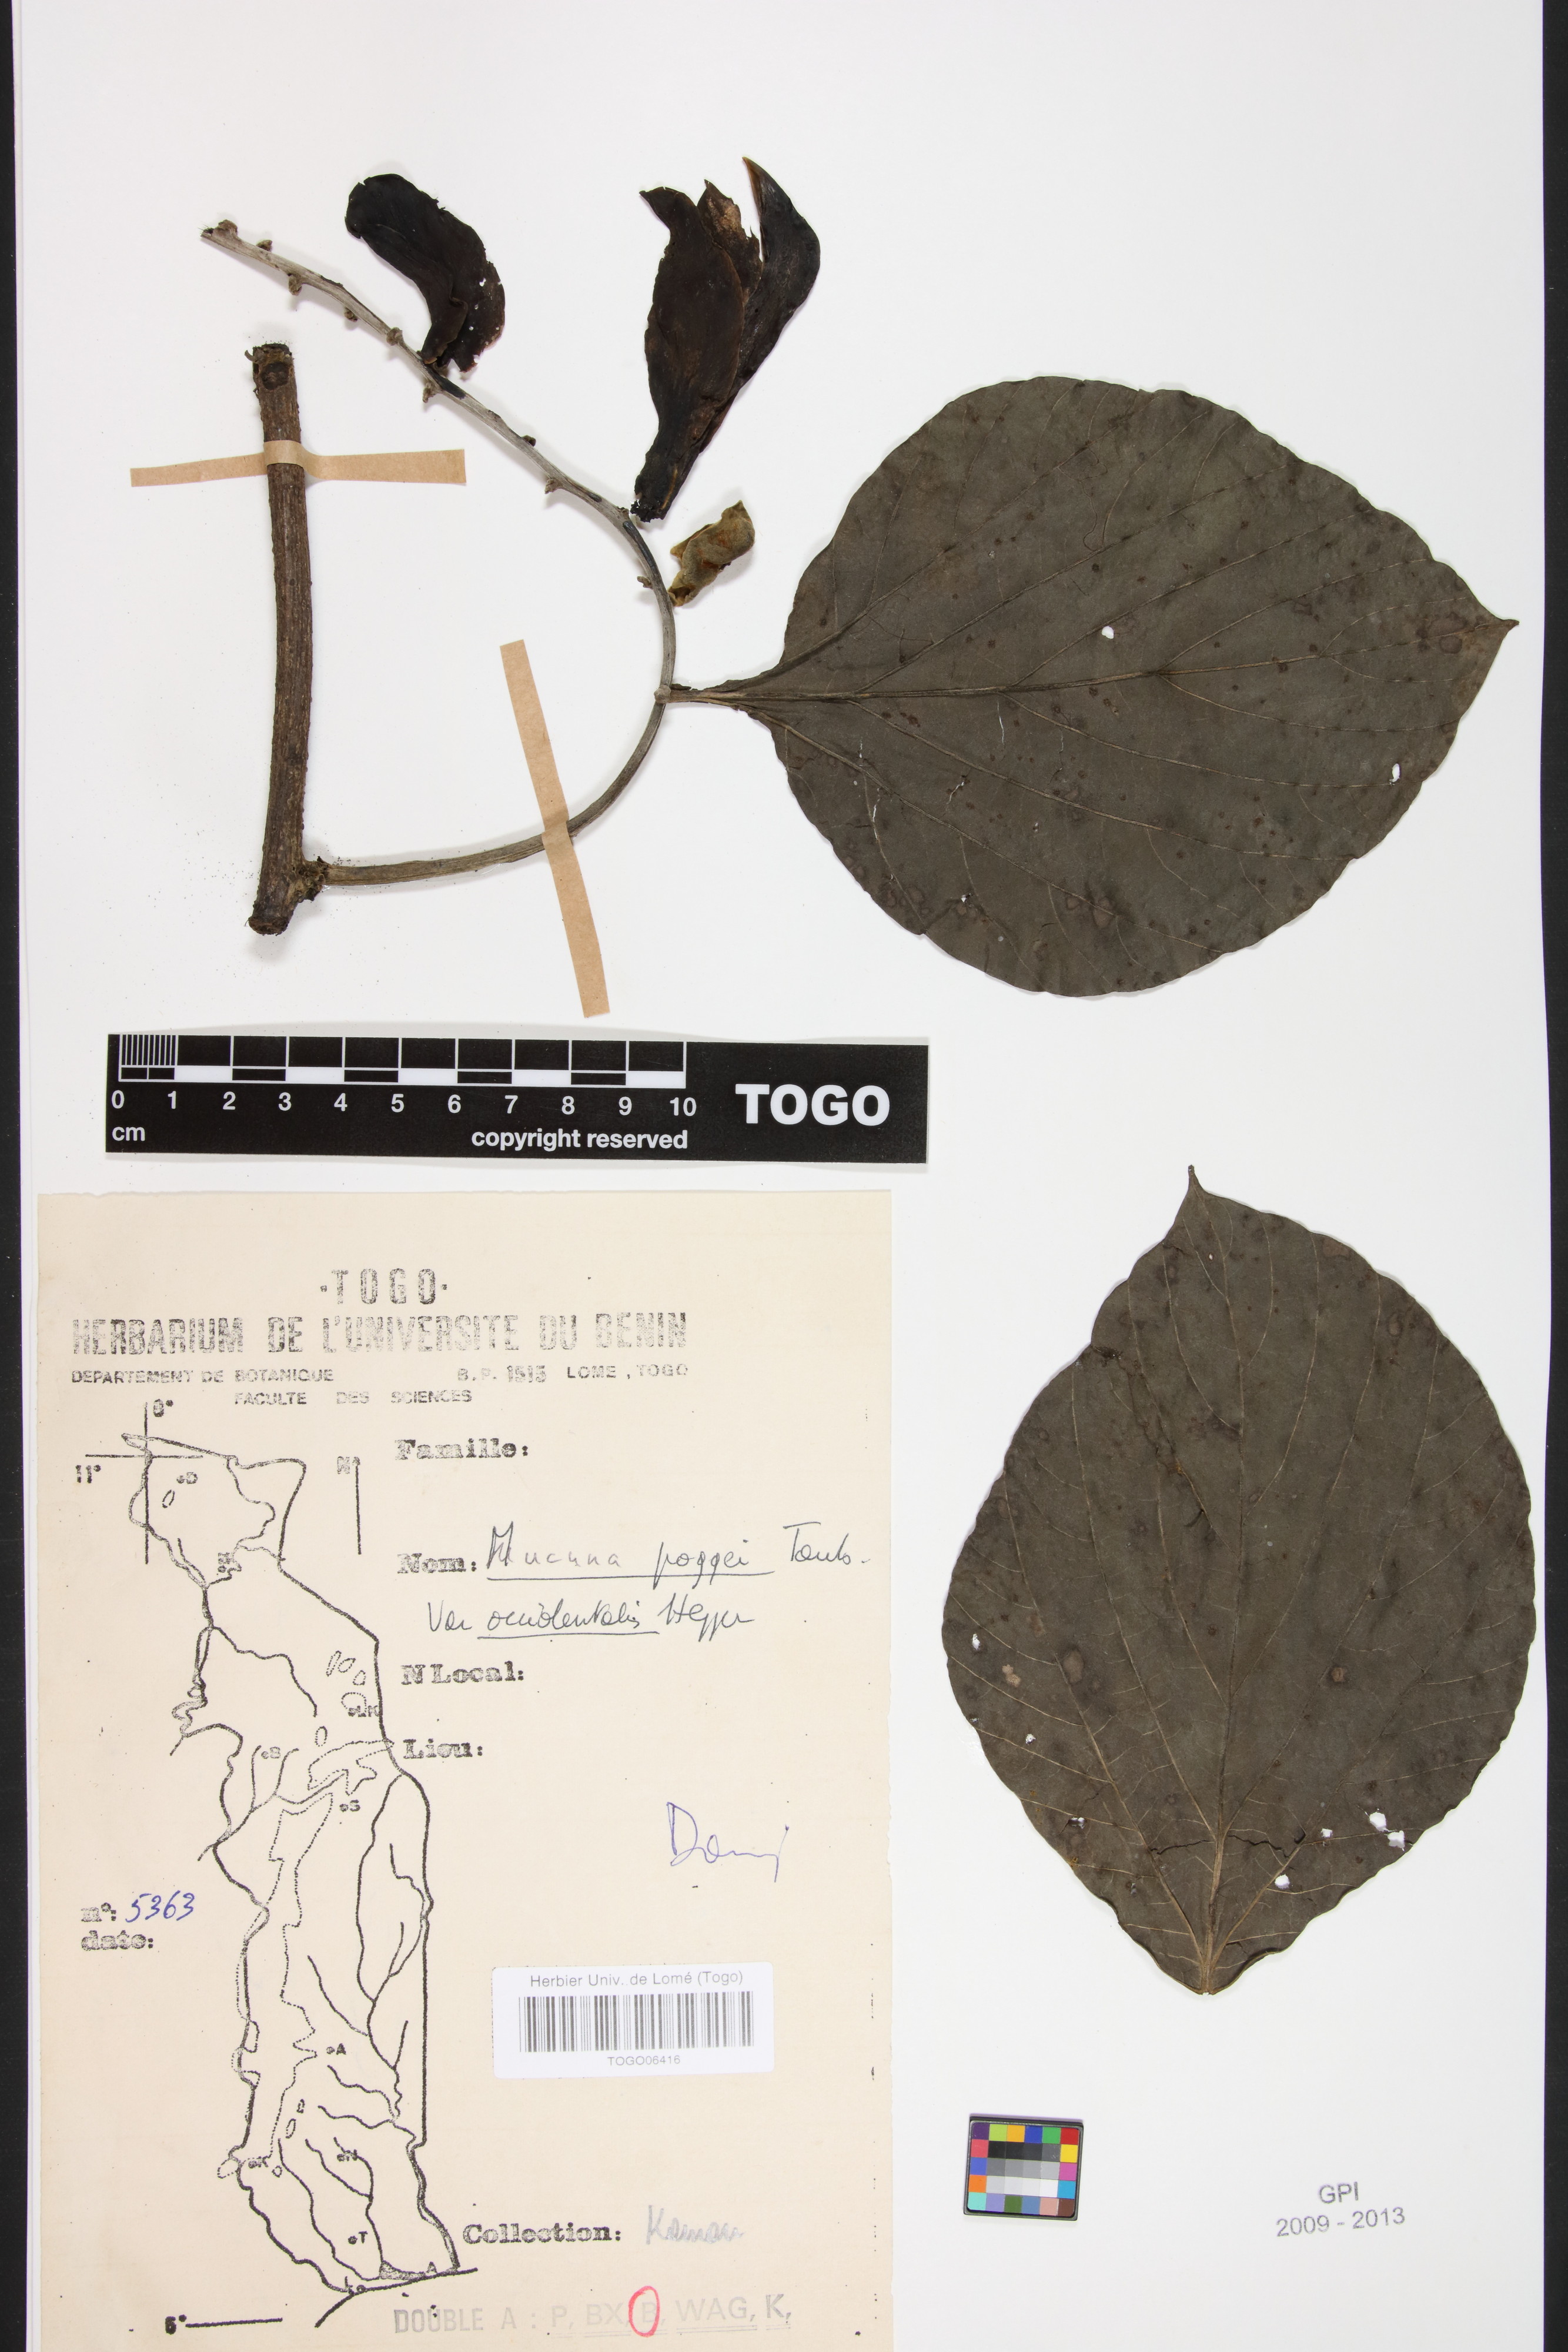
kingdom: Plantae
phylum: Tracheophyta
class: Magnoliopsida
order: Fabales
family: Fabaceae
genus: Mucuna
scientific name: Mucuna occidentalis
